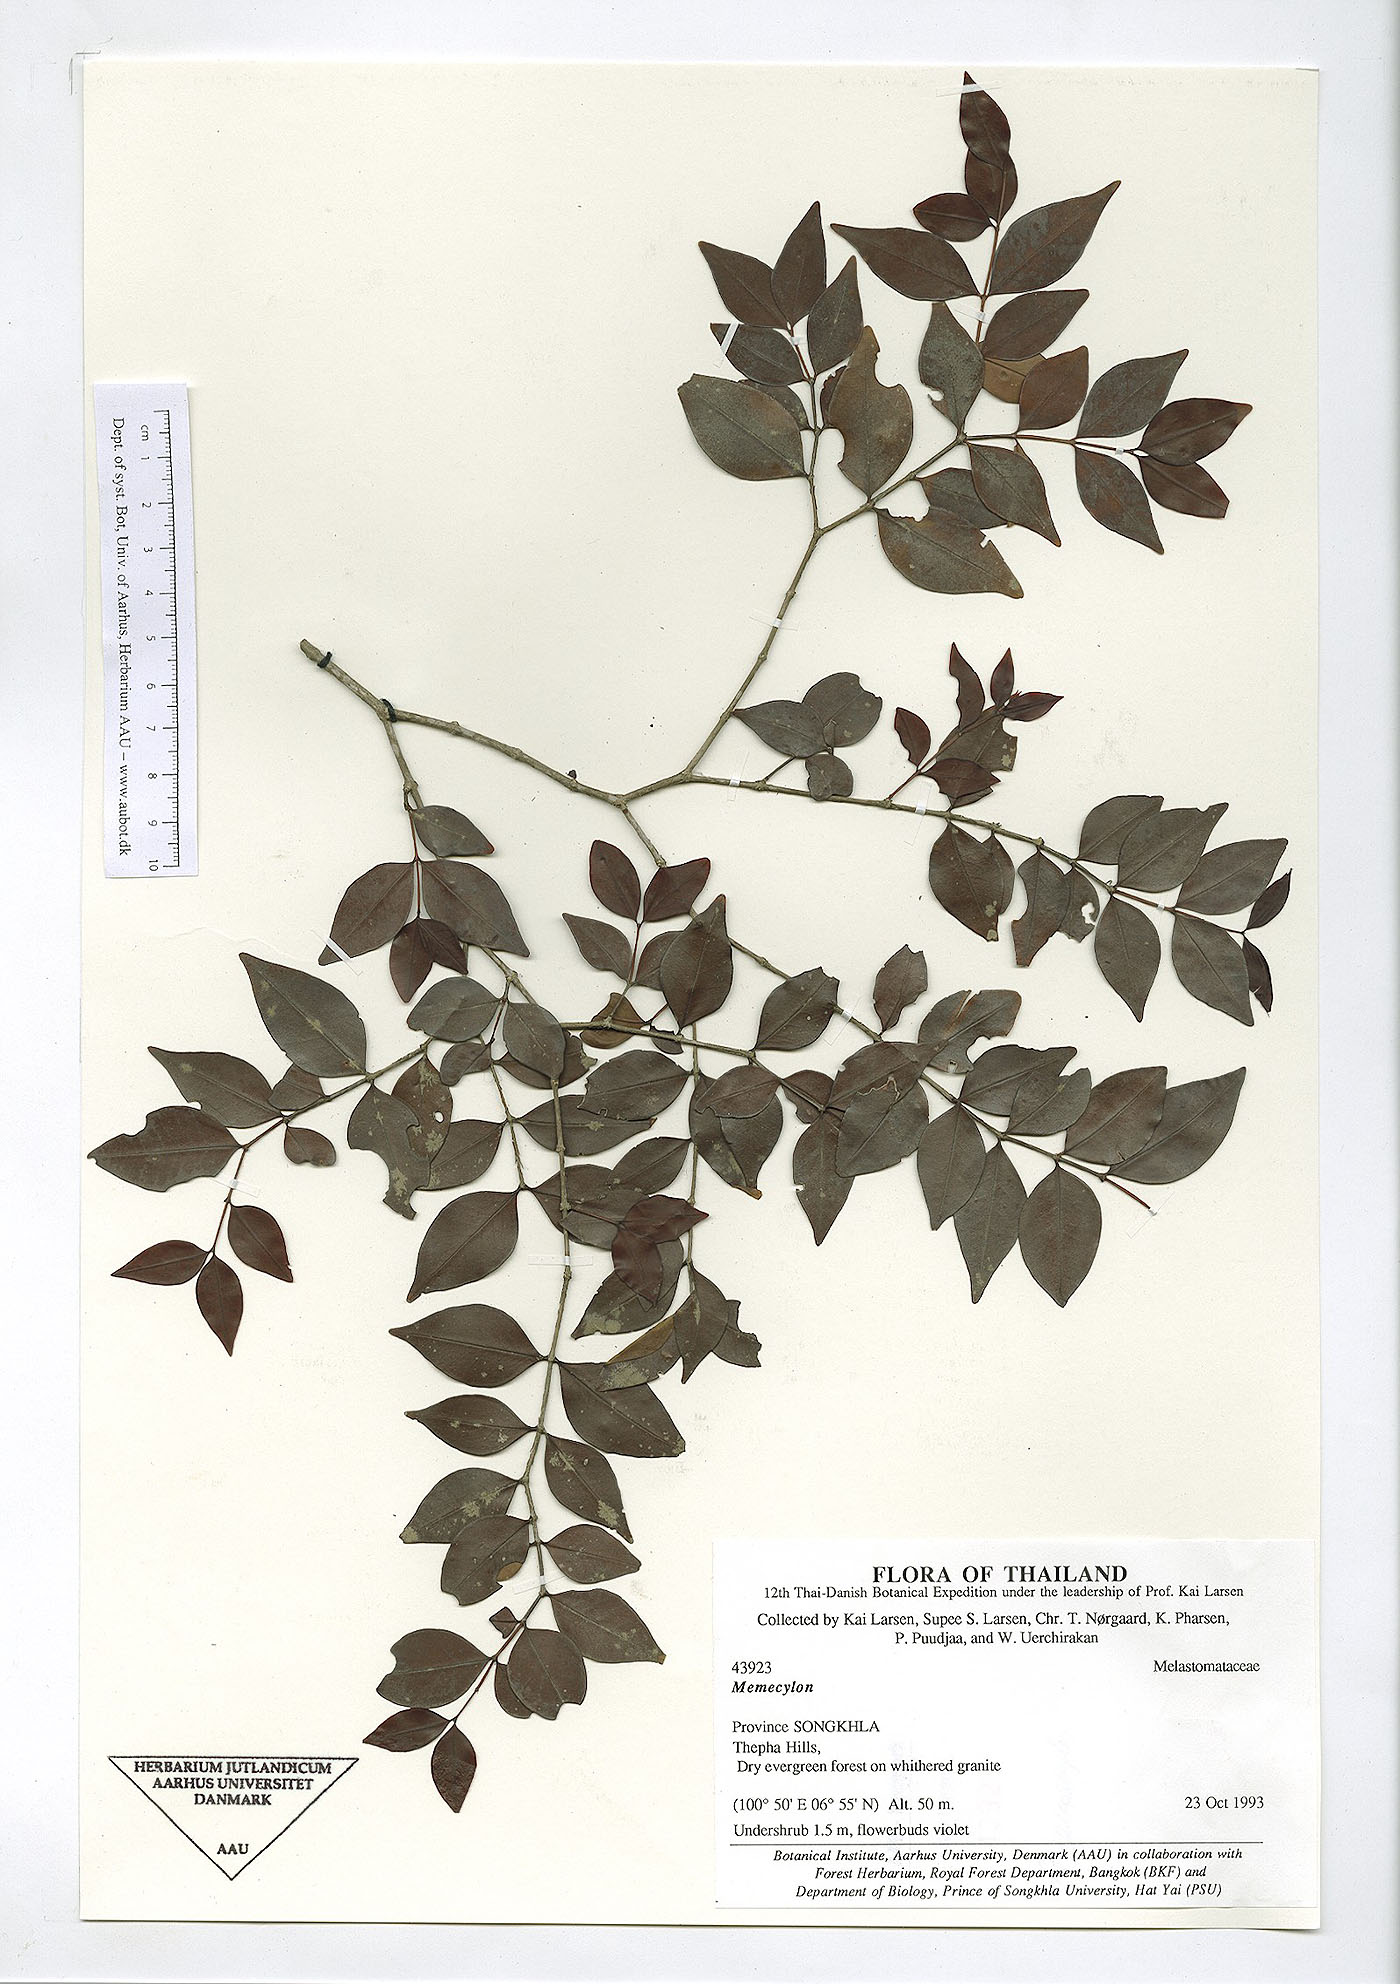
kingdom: Plantae
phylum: Tracheophyta
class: Magnoliopsida
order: Myrtales
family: Melastomataceae
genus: Memecylon
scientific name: Memecylon pauciflorum
